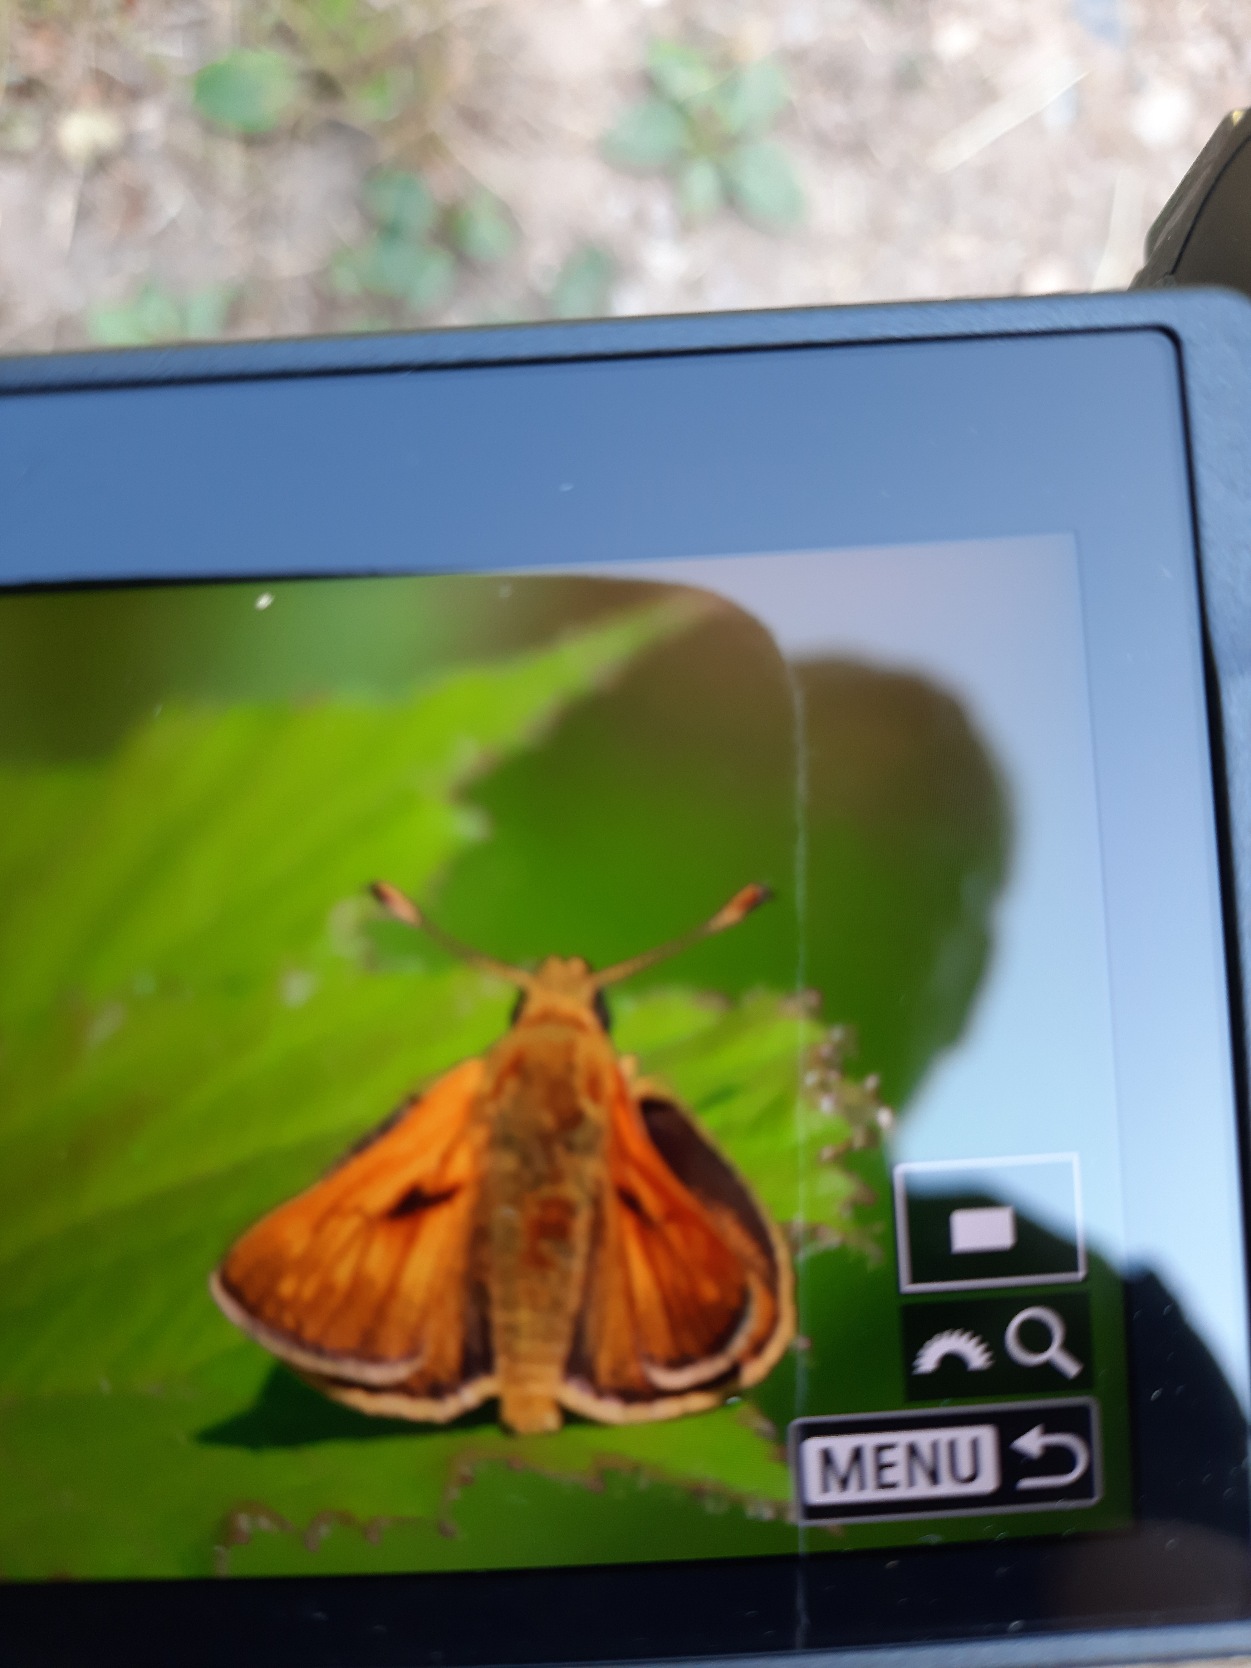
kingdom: Animalia
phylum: Arthropoda
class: Insecta
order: Lepidoptera
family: Hesperiidae
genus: Ochlodes
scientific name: Ochlodes venata
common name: Stor bredpande
